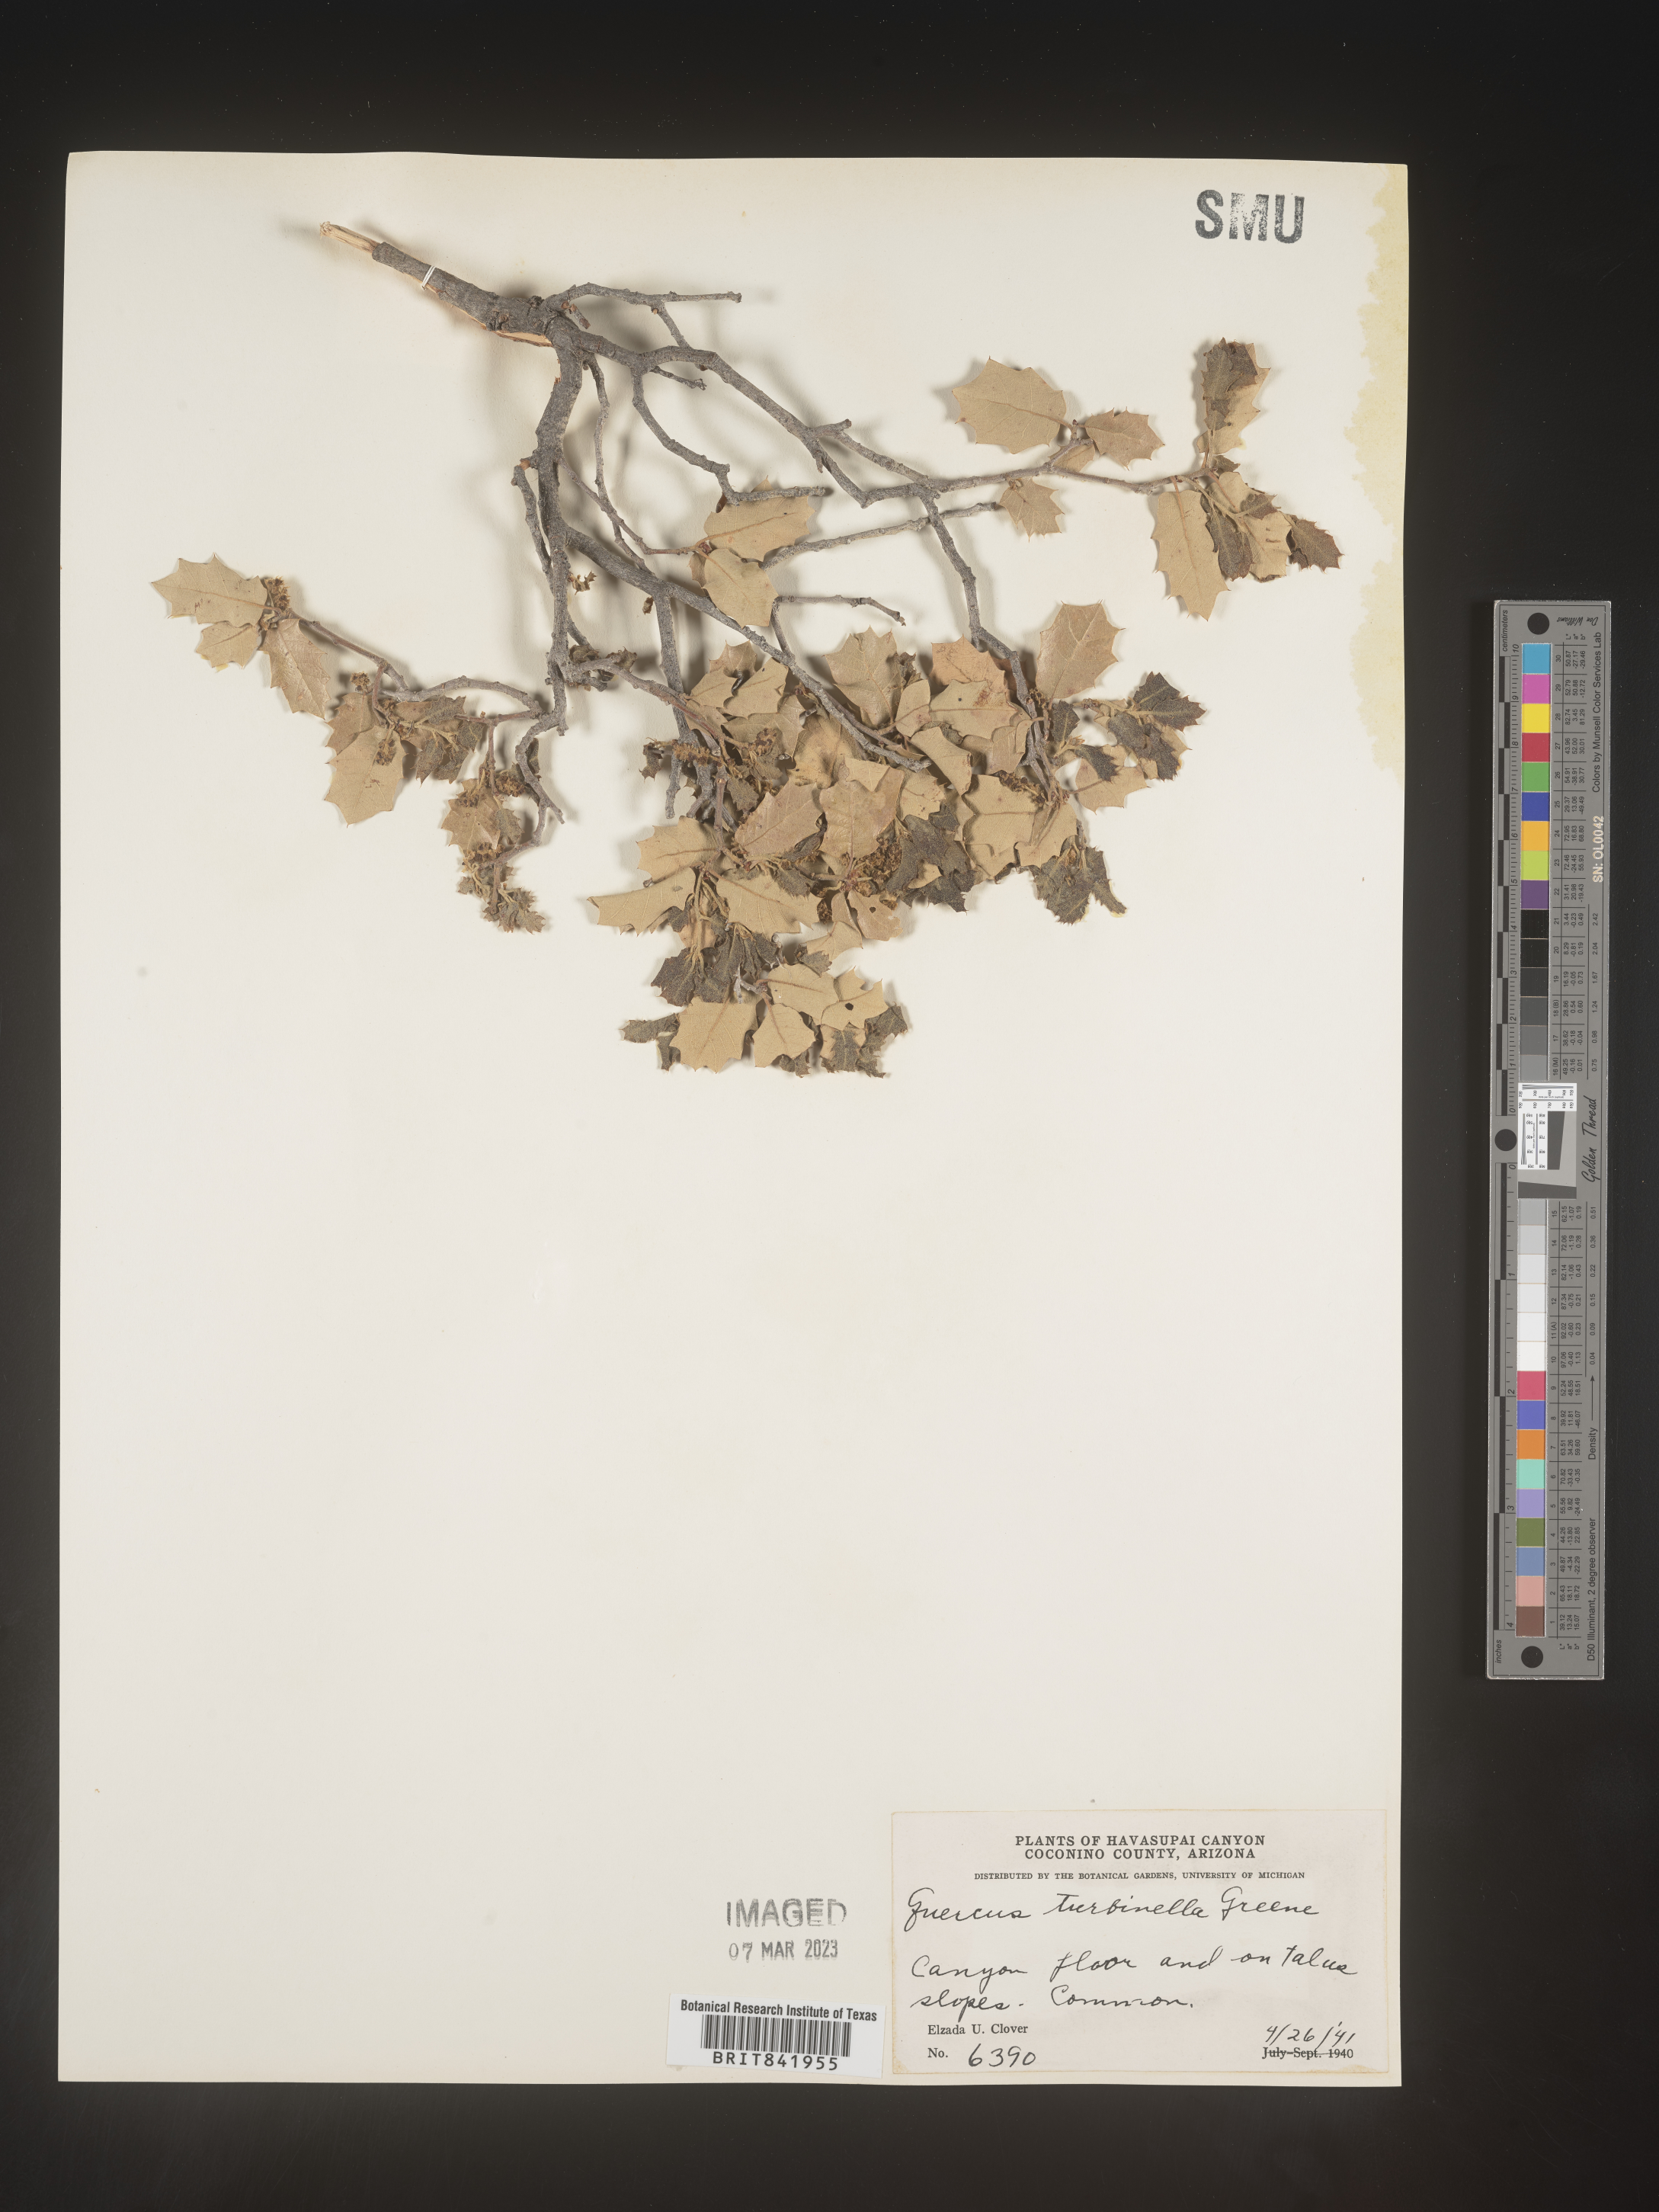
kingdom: Plantae
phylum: Tracheophyta
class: Magnoliopsida
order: Fagales
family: Fagaceae
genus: Quercus
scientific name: Quercus turbinella
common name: Sonoran scrub oak
